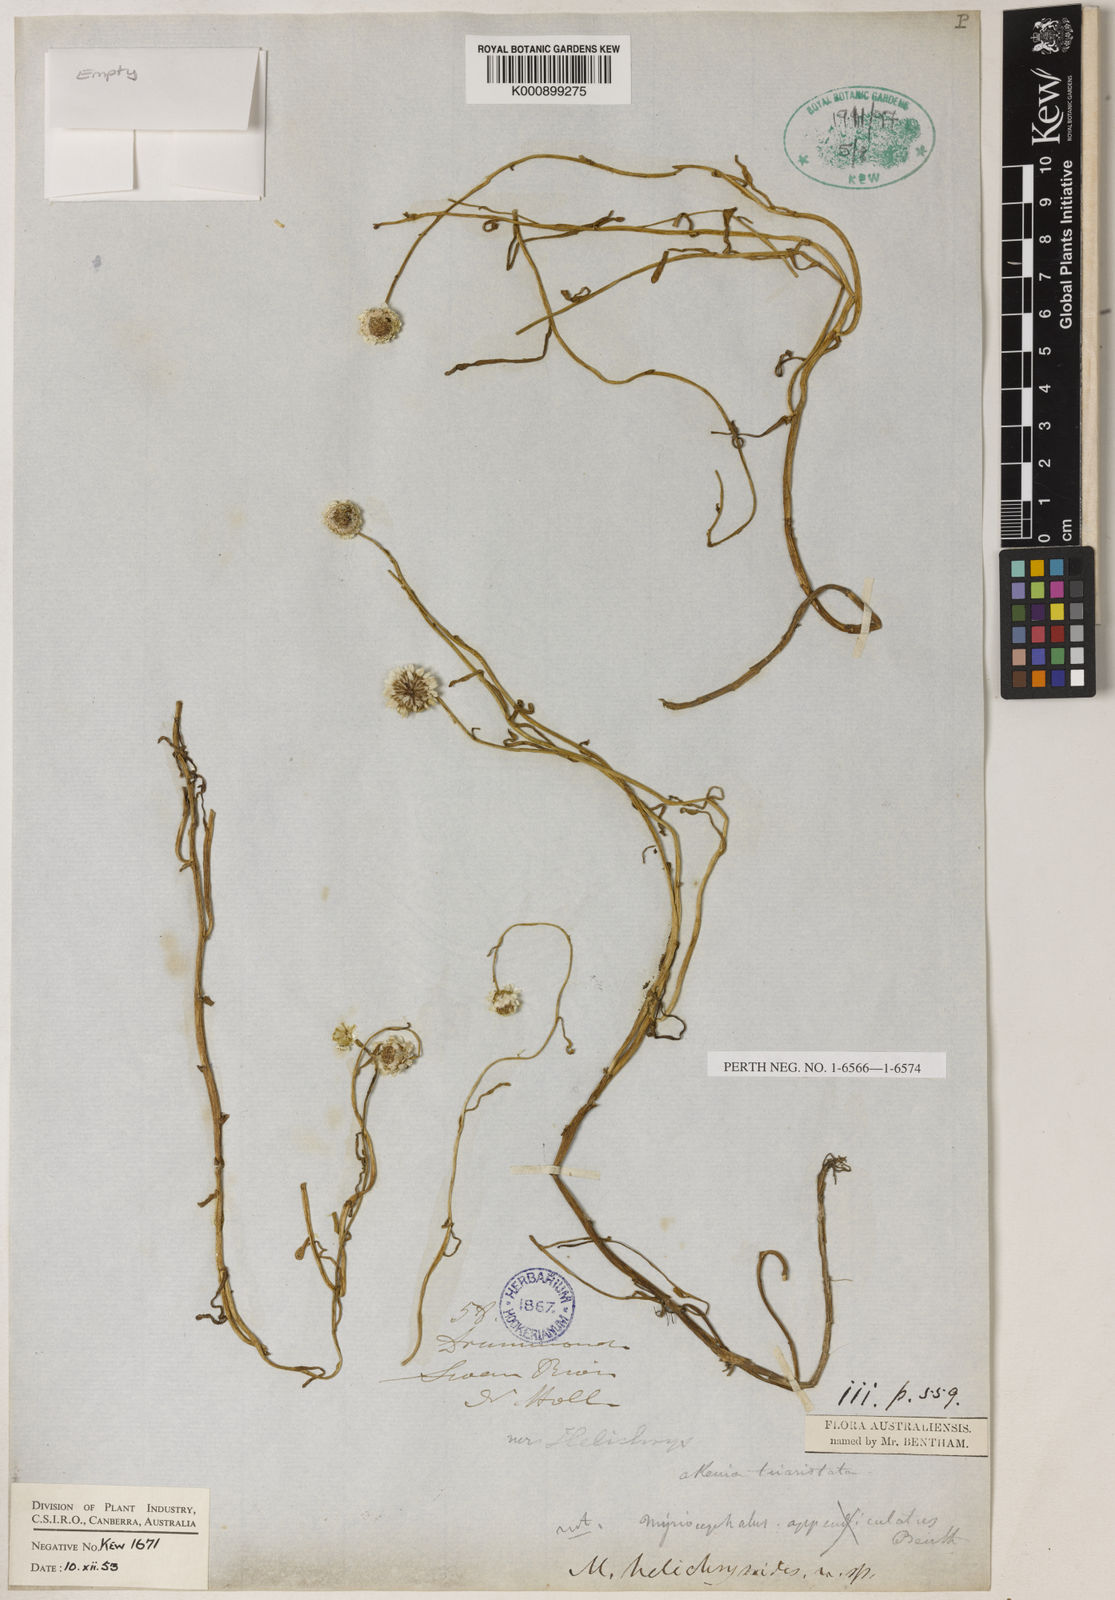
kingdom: Plantae
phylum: Tracheophyta
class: Magnoliopsida
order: Asterales
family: Asteraceae
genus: Myriocephalus
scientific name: Myriocephalus helichrysoides
